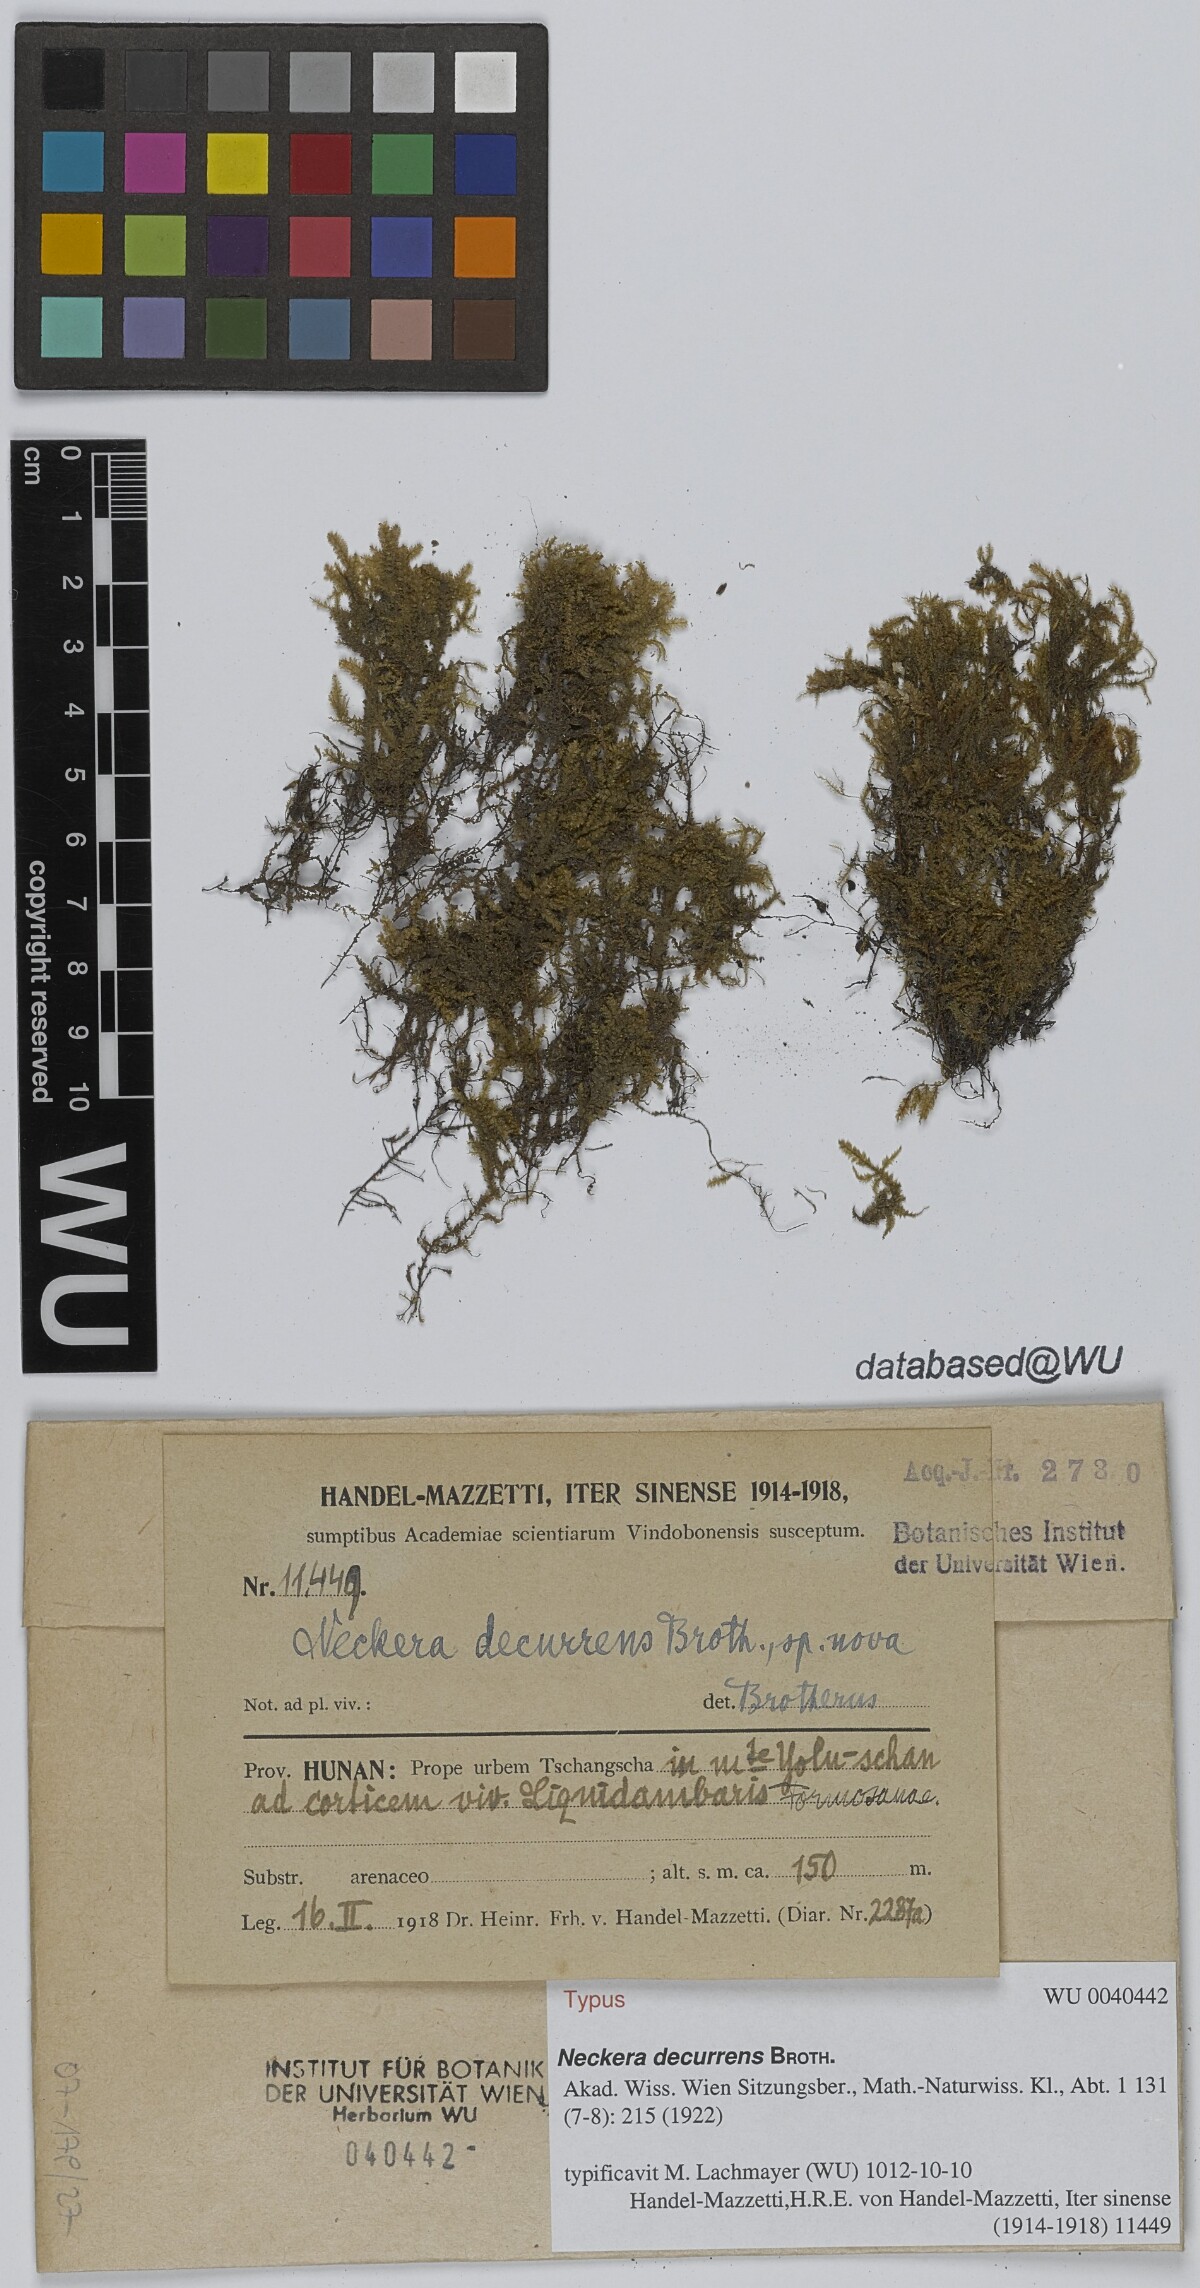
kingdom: Plantae
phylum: Bryophyta
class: Bryopsida
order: Hypnales
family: Neckeraceae
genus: Forsstroemia
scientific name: Forsstroemia fauriei
